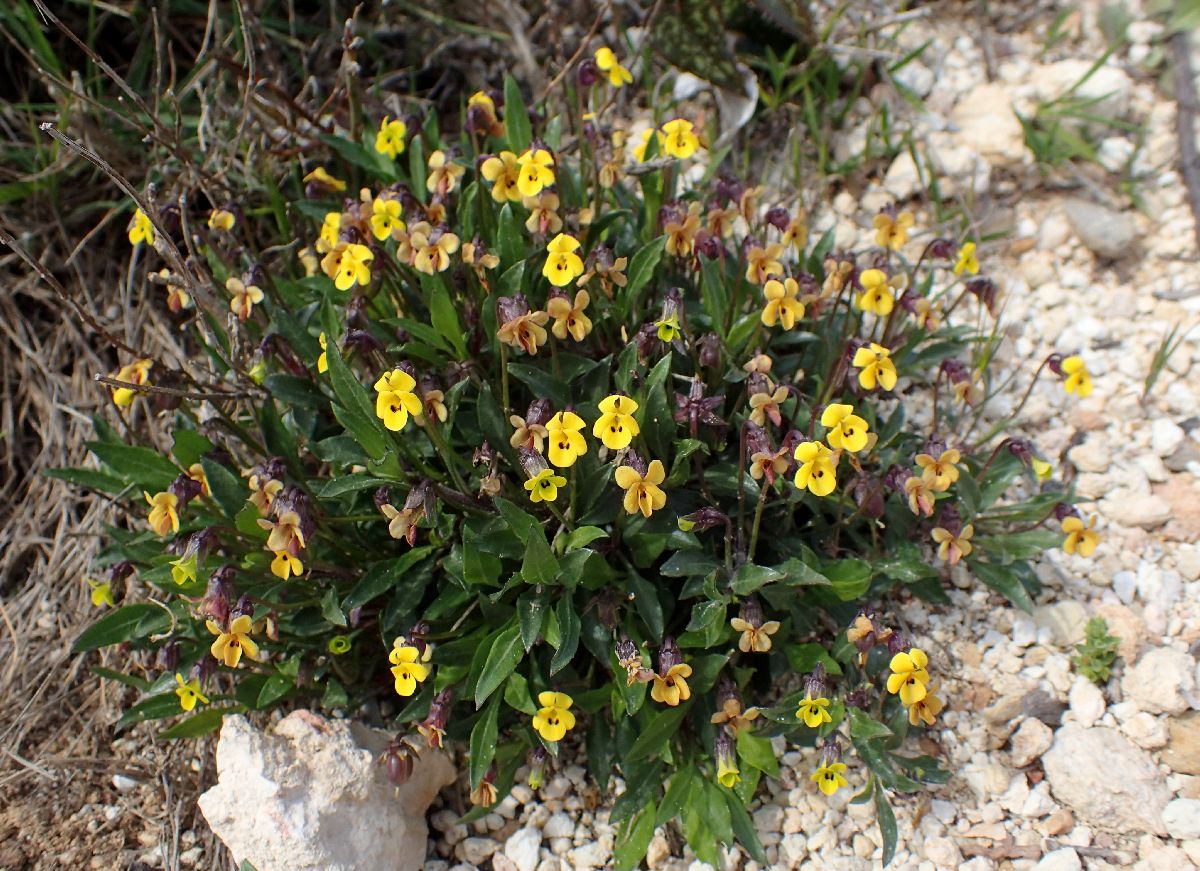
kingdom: Plantae
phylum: Tracheophyta
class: Magnoliopsida
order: Malpighiales
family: Violaceae
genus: Viola
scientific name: Viola scorpiuroides
